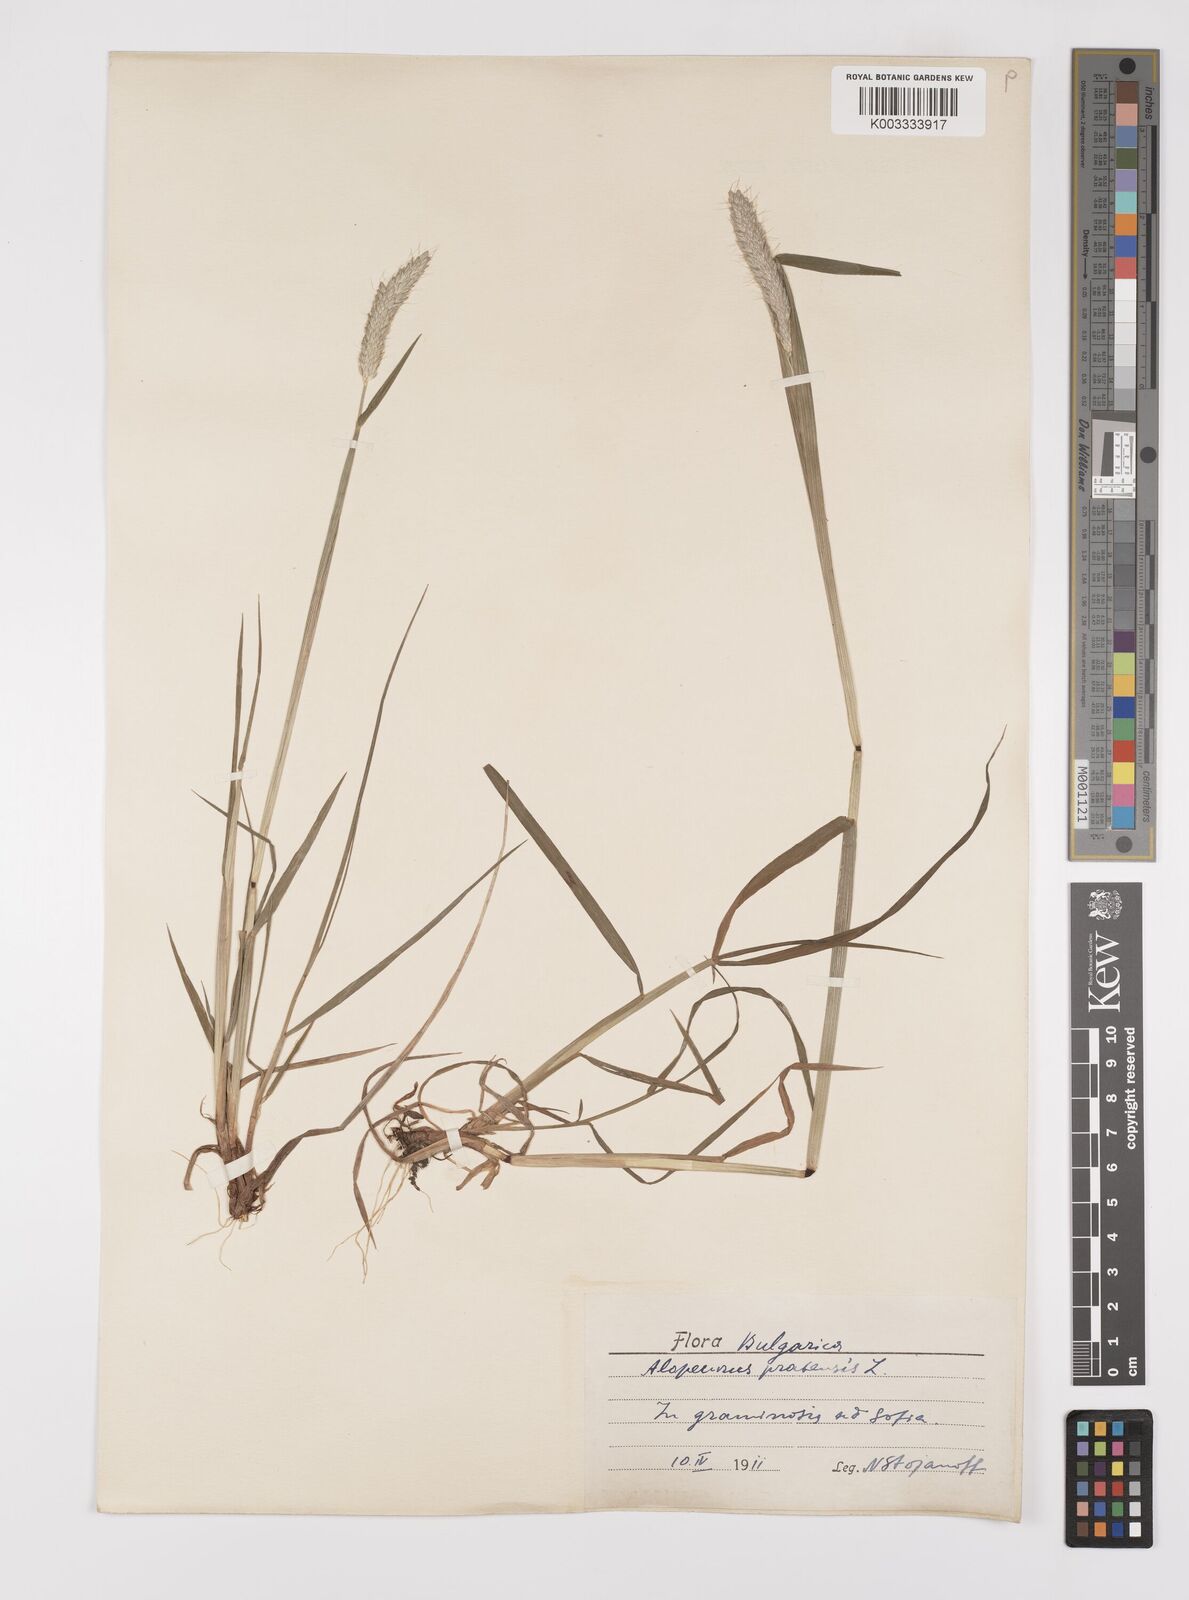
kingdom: Plantae
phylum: Tracheophyta
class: Liliopsida
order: Poales
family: Poaceae
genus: Alopecurus
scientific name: Alopecurus pratensis
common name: Meadow foxtail
